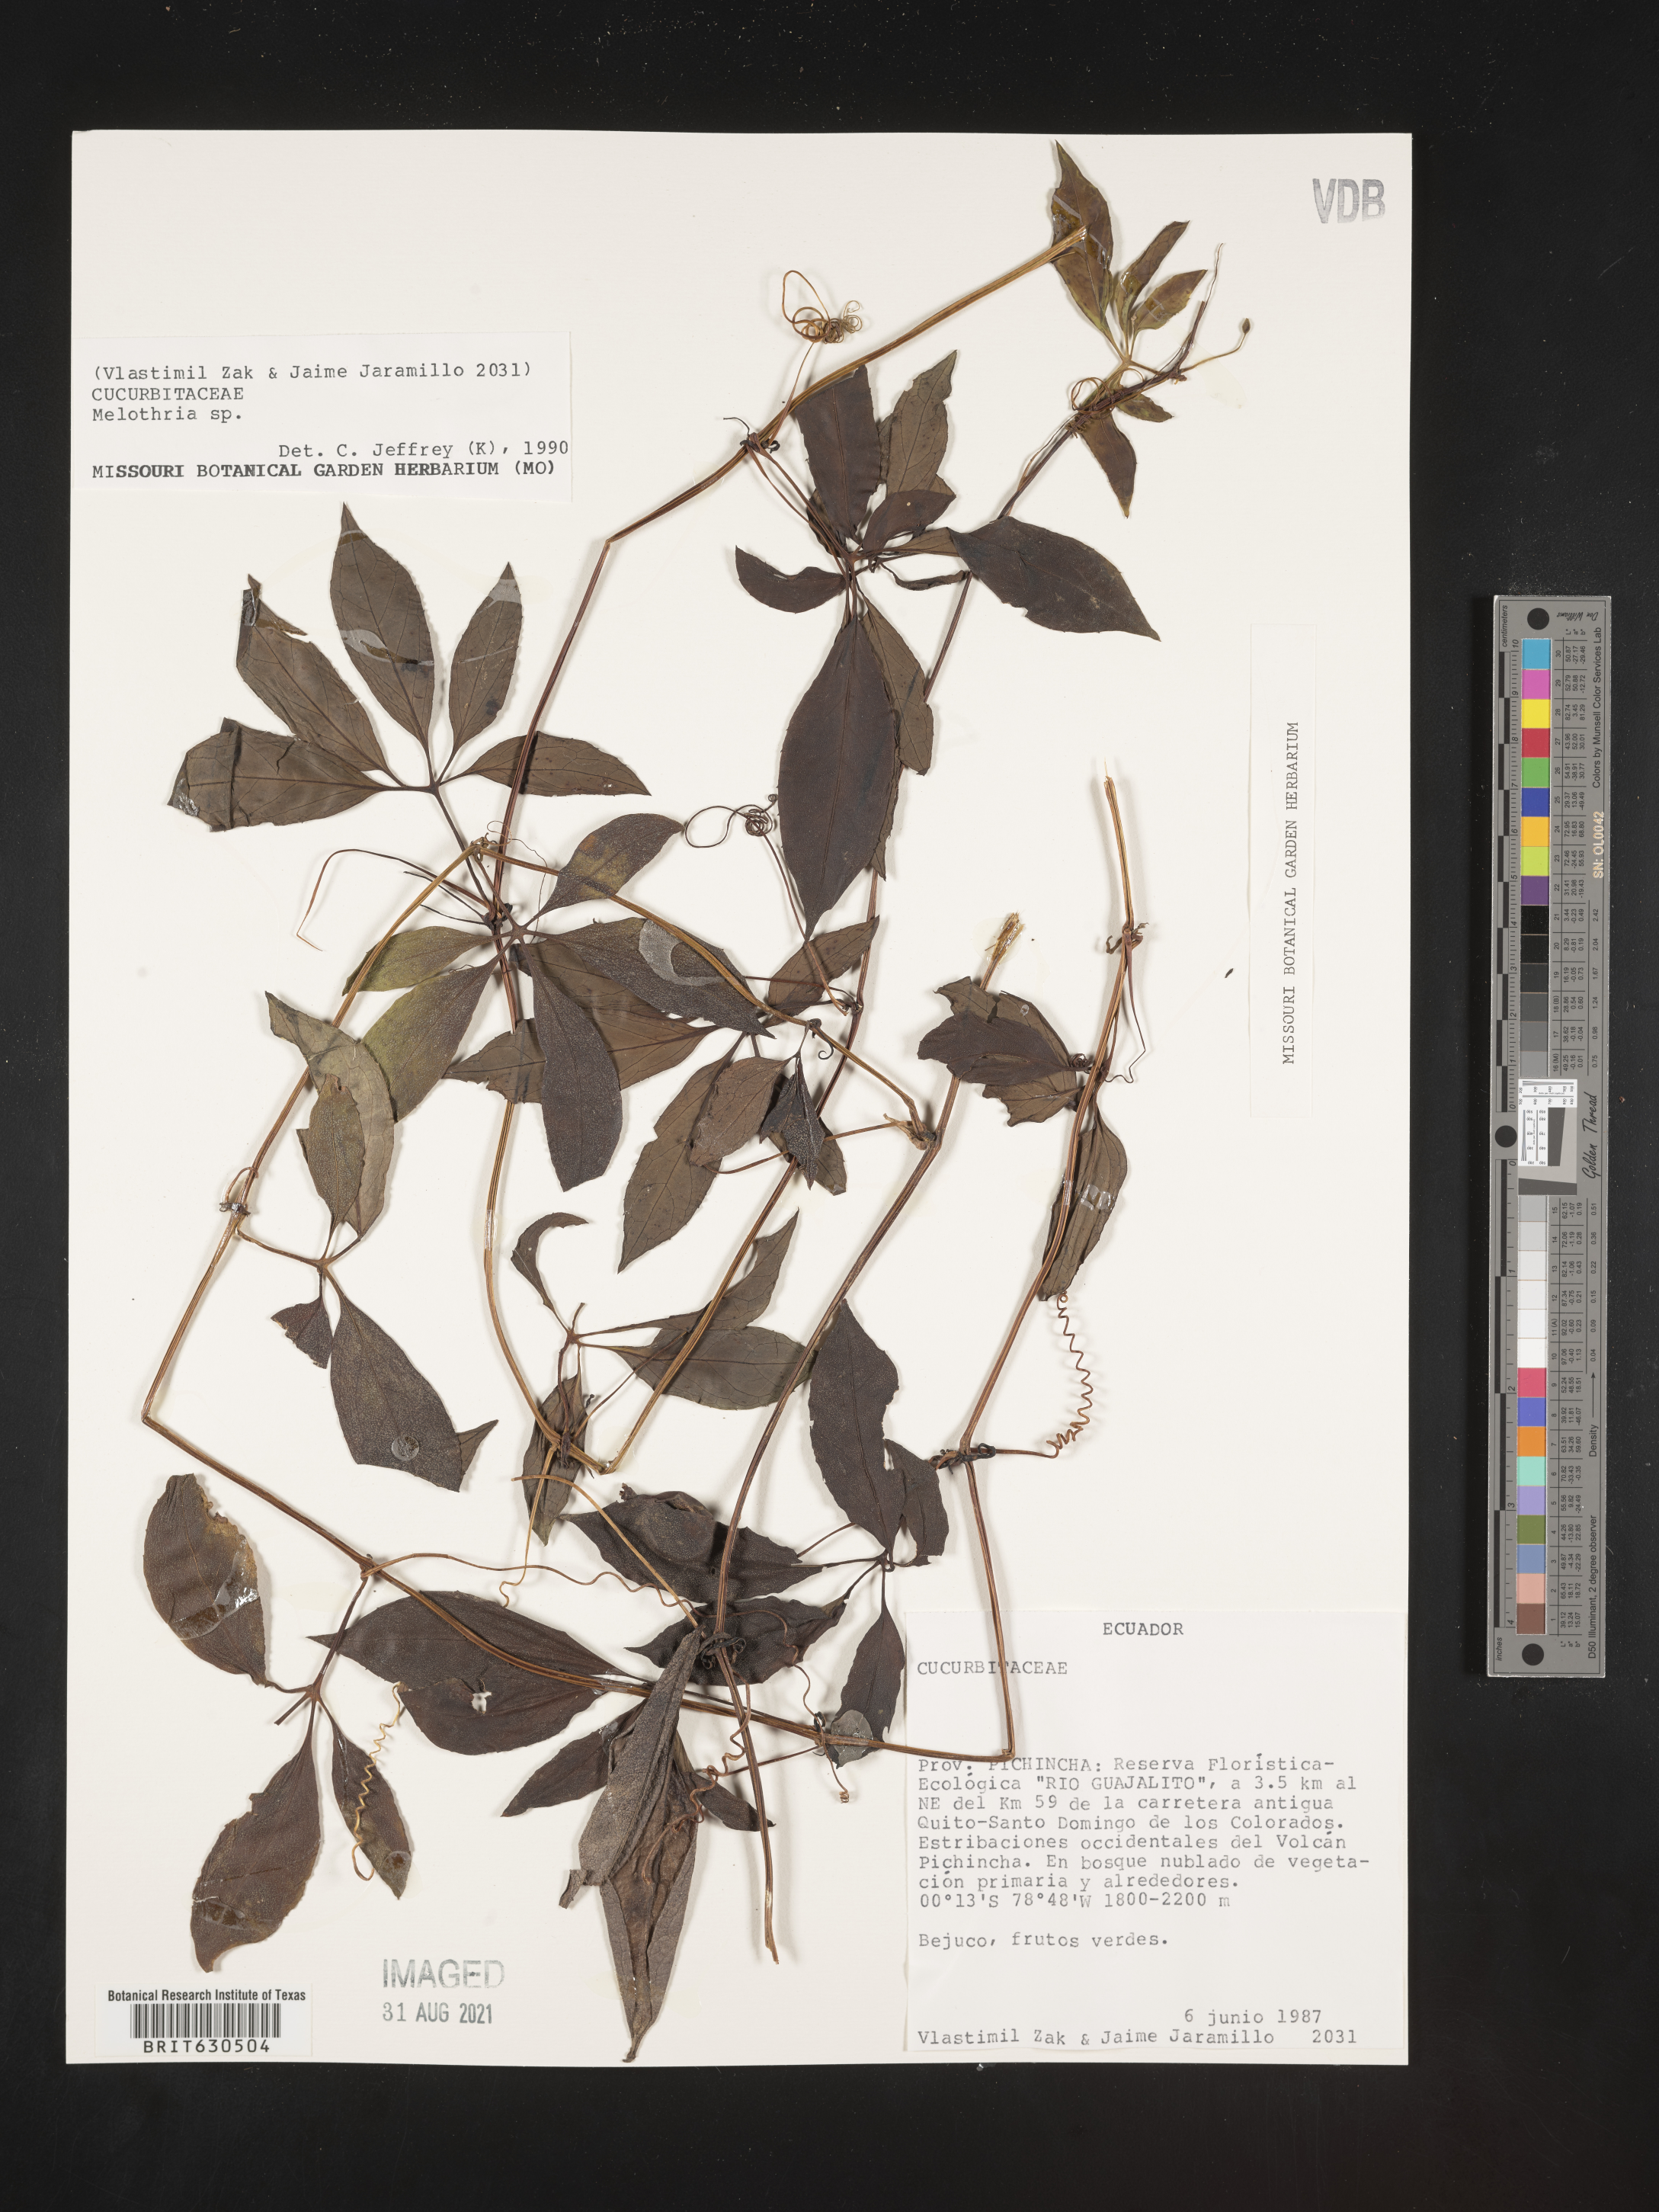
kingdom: Plantae
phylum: Tracheophyta
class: Magnoliopsida
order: Cucurbitales
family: Cucurbitaceae
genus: Melothria
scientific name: Melothria
